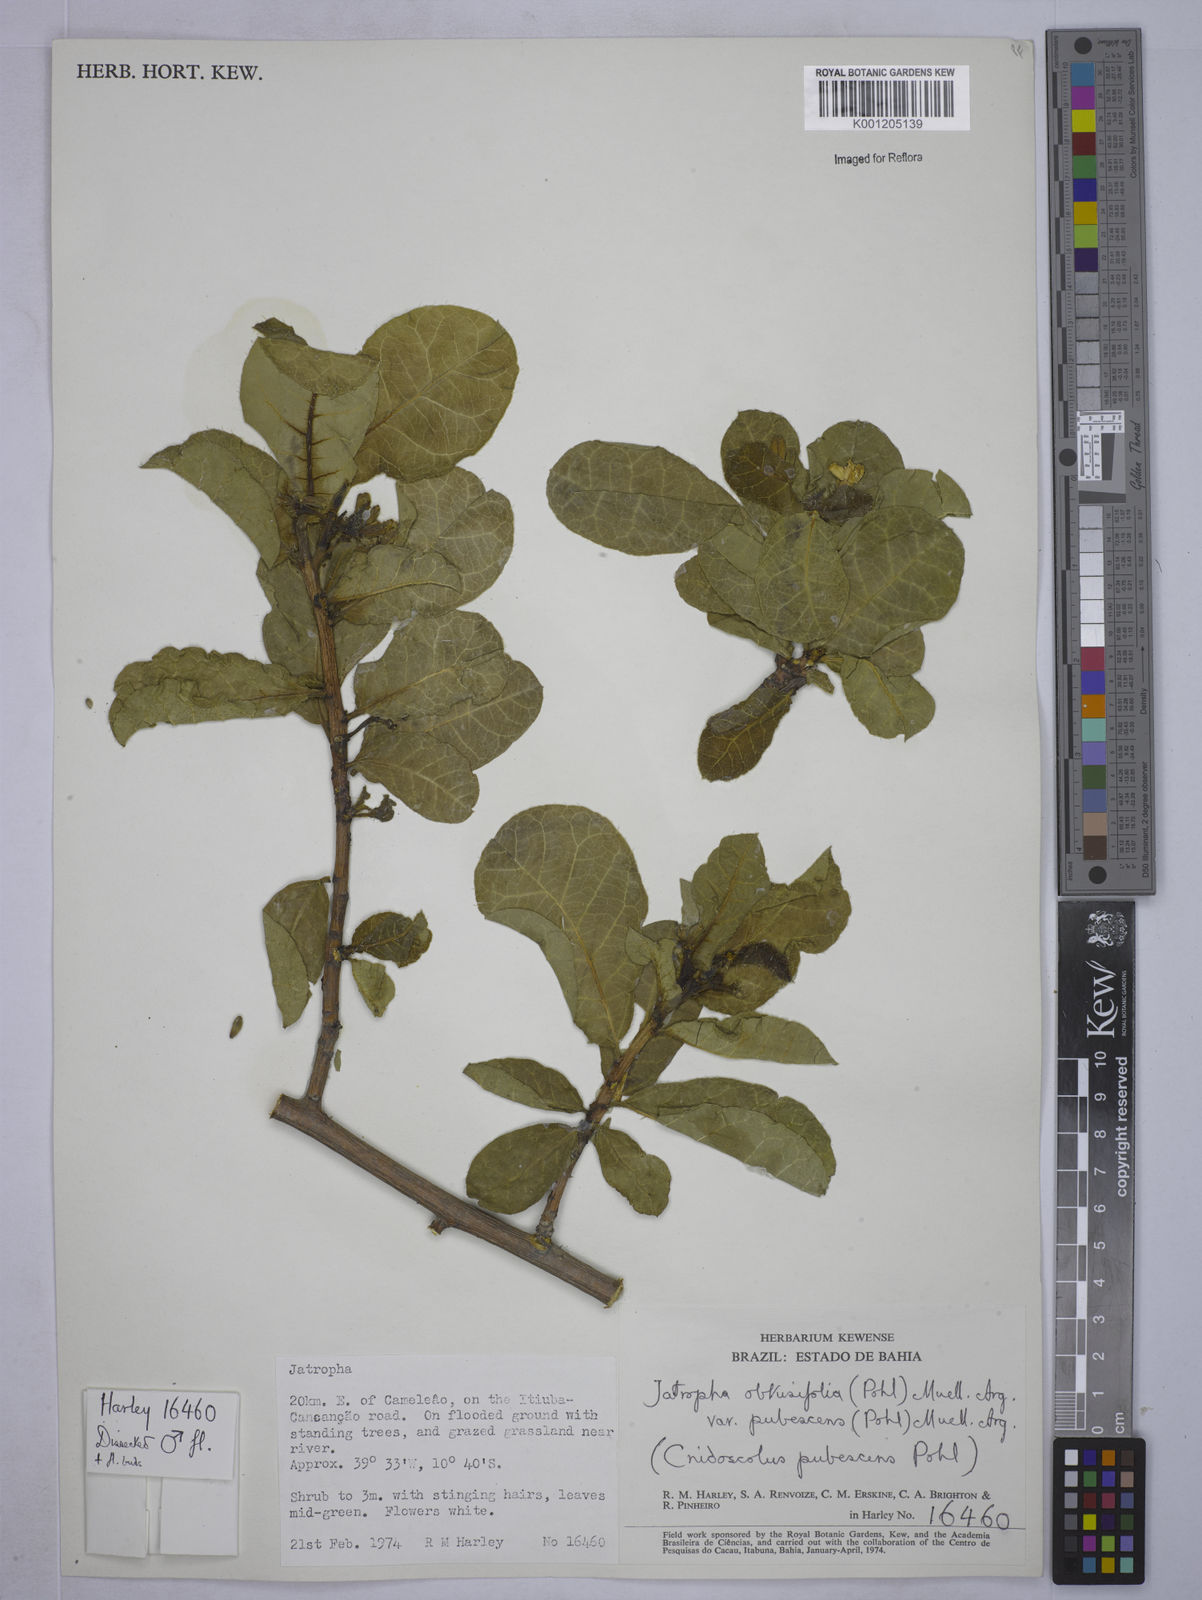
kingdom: Plantae
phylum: Tracheophyta
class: Magnoliopsida
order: Malpighiales
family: Euphorbiaceae
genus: Cnidoscolus
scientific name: Cnidoscolus
